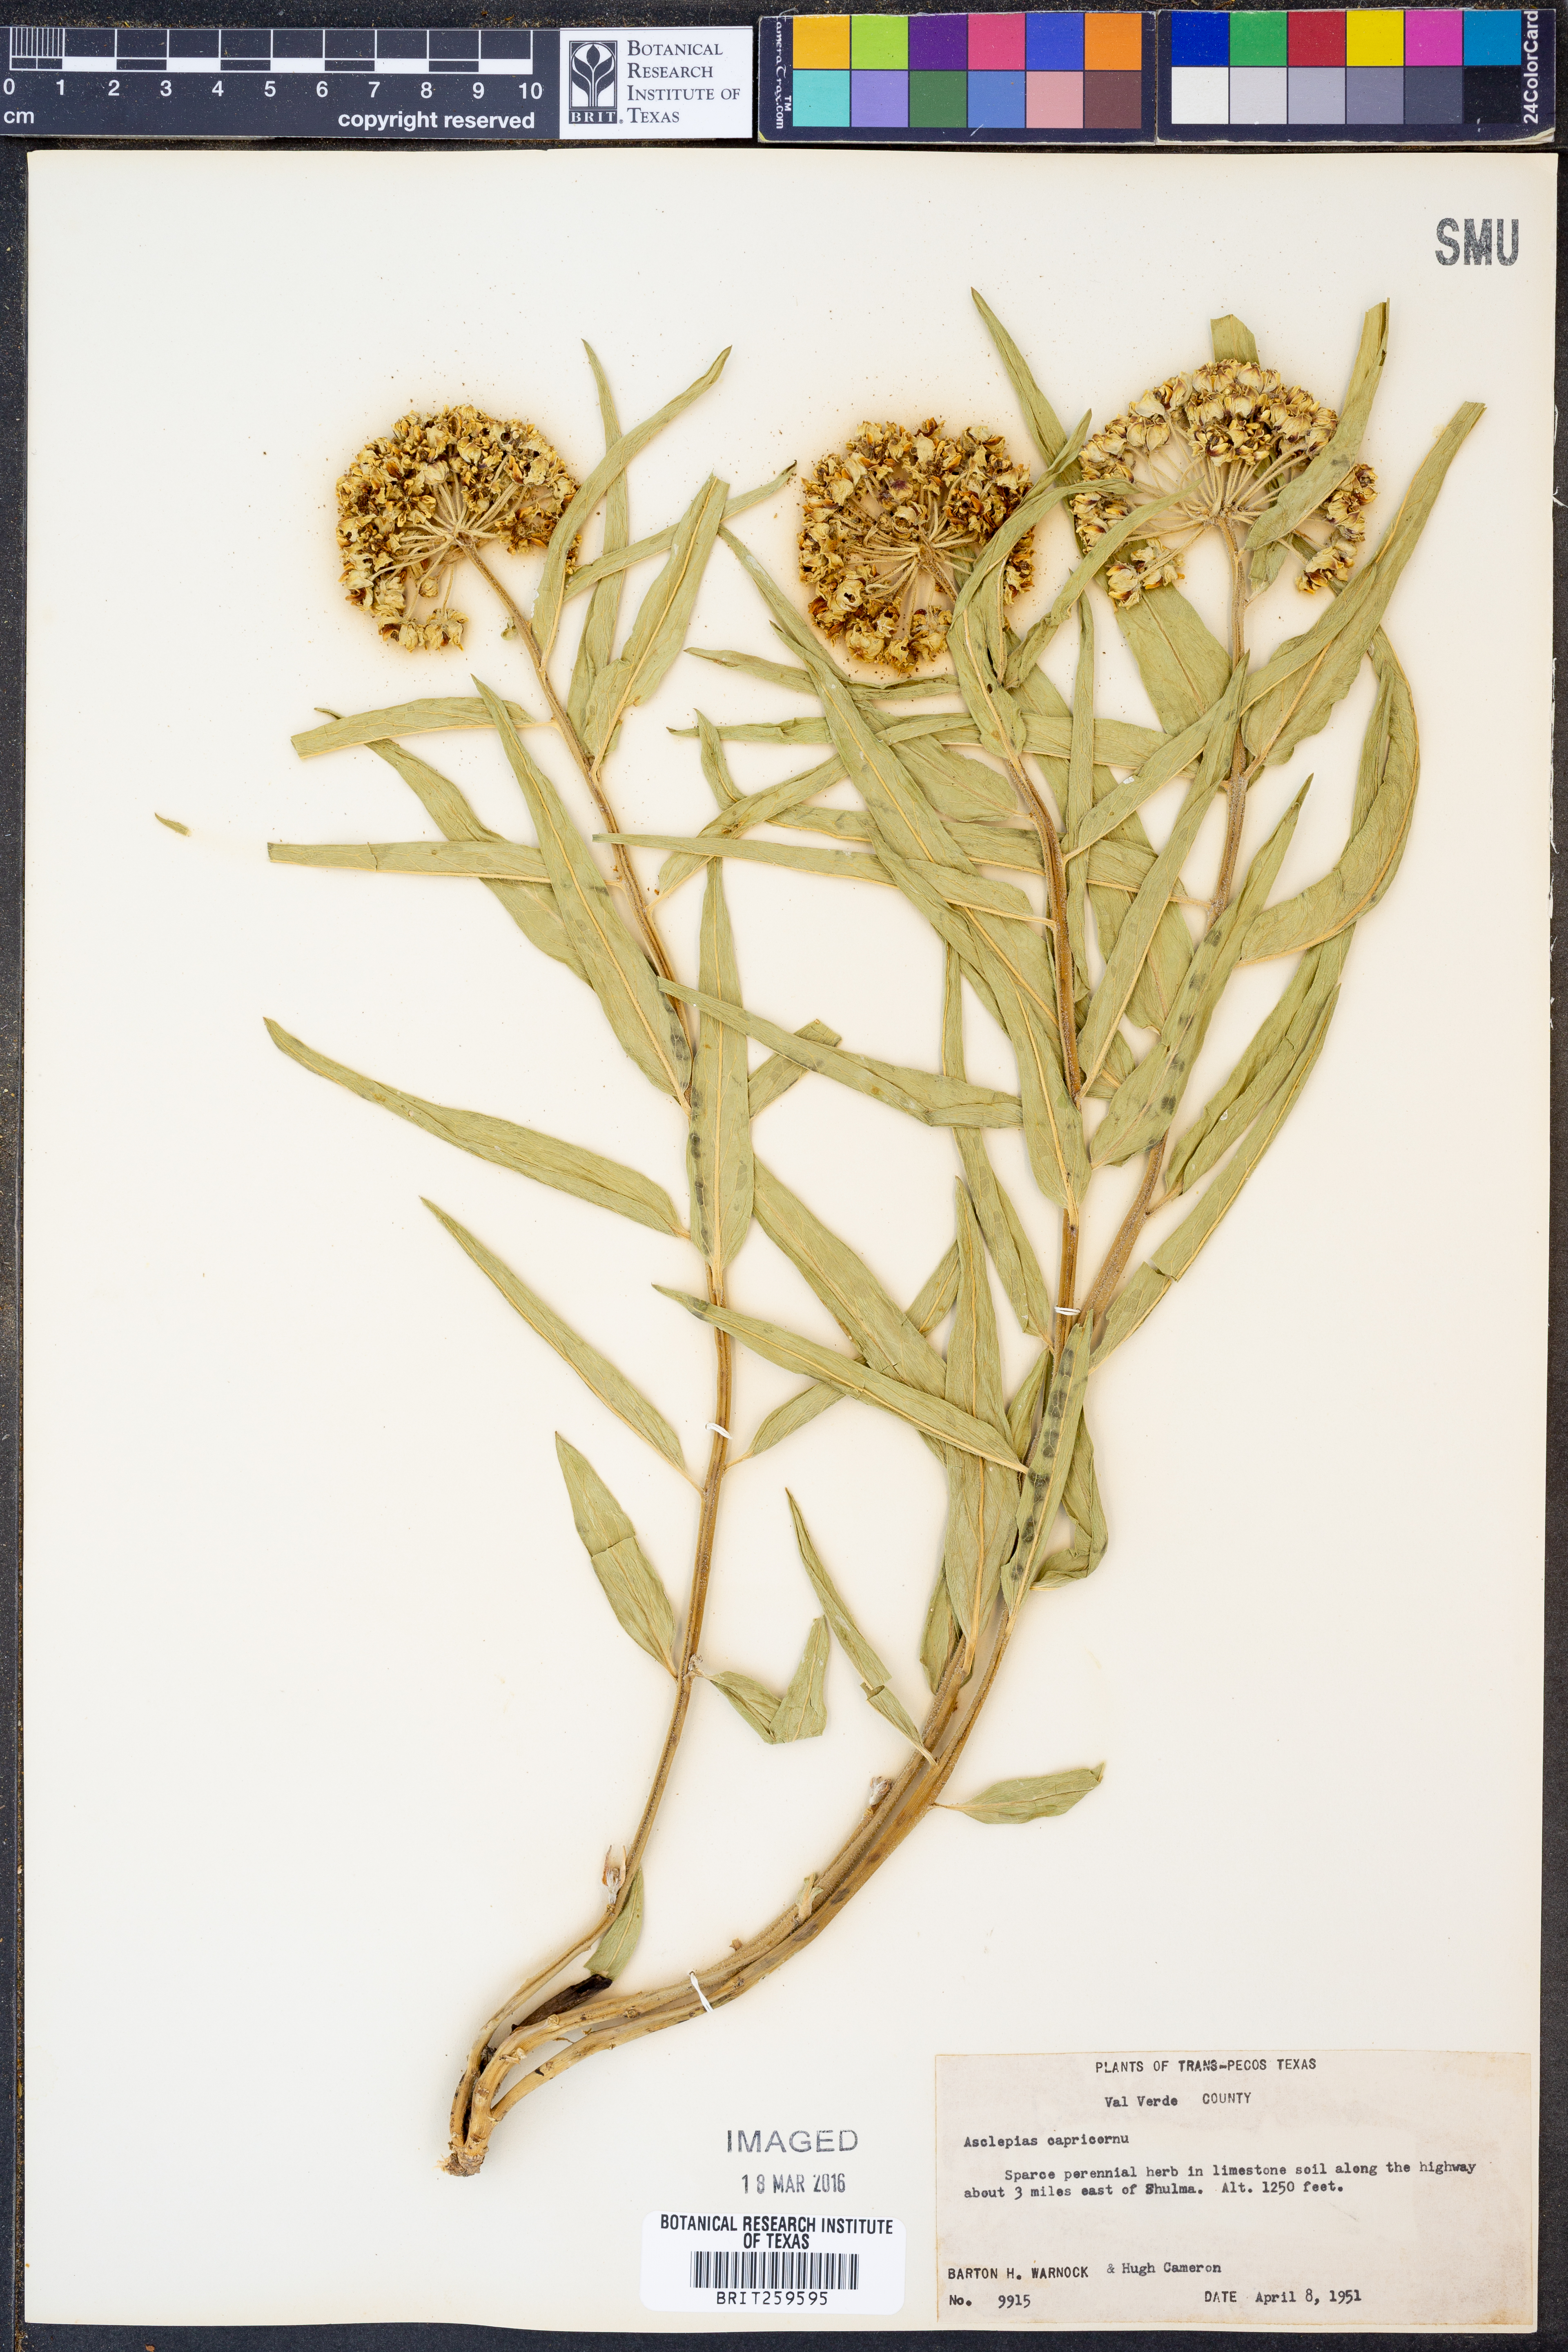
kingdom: Plantae
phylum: Tracheophyta
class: Magnoliopsida
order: Gentianales
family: Apocynaceae
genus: Asclepias
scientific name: Asclepias asperula
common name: Antelope horns
